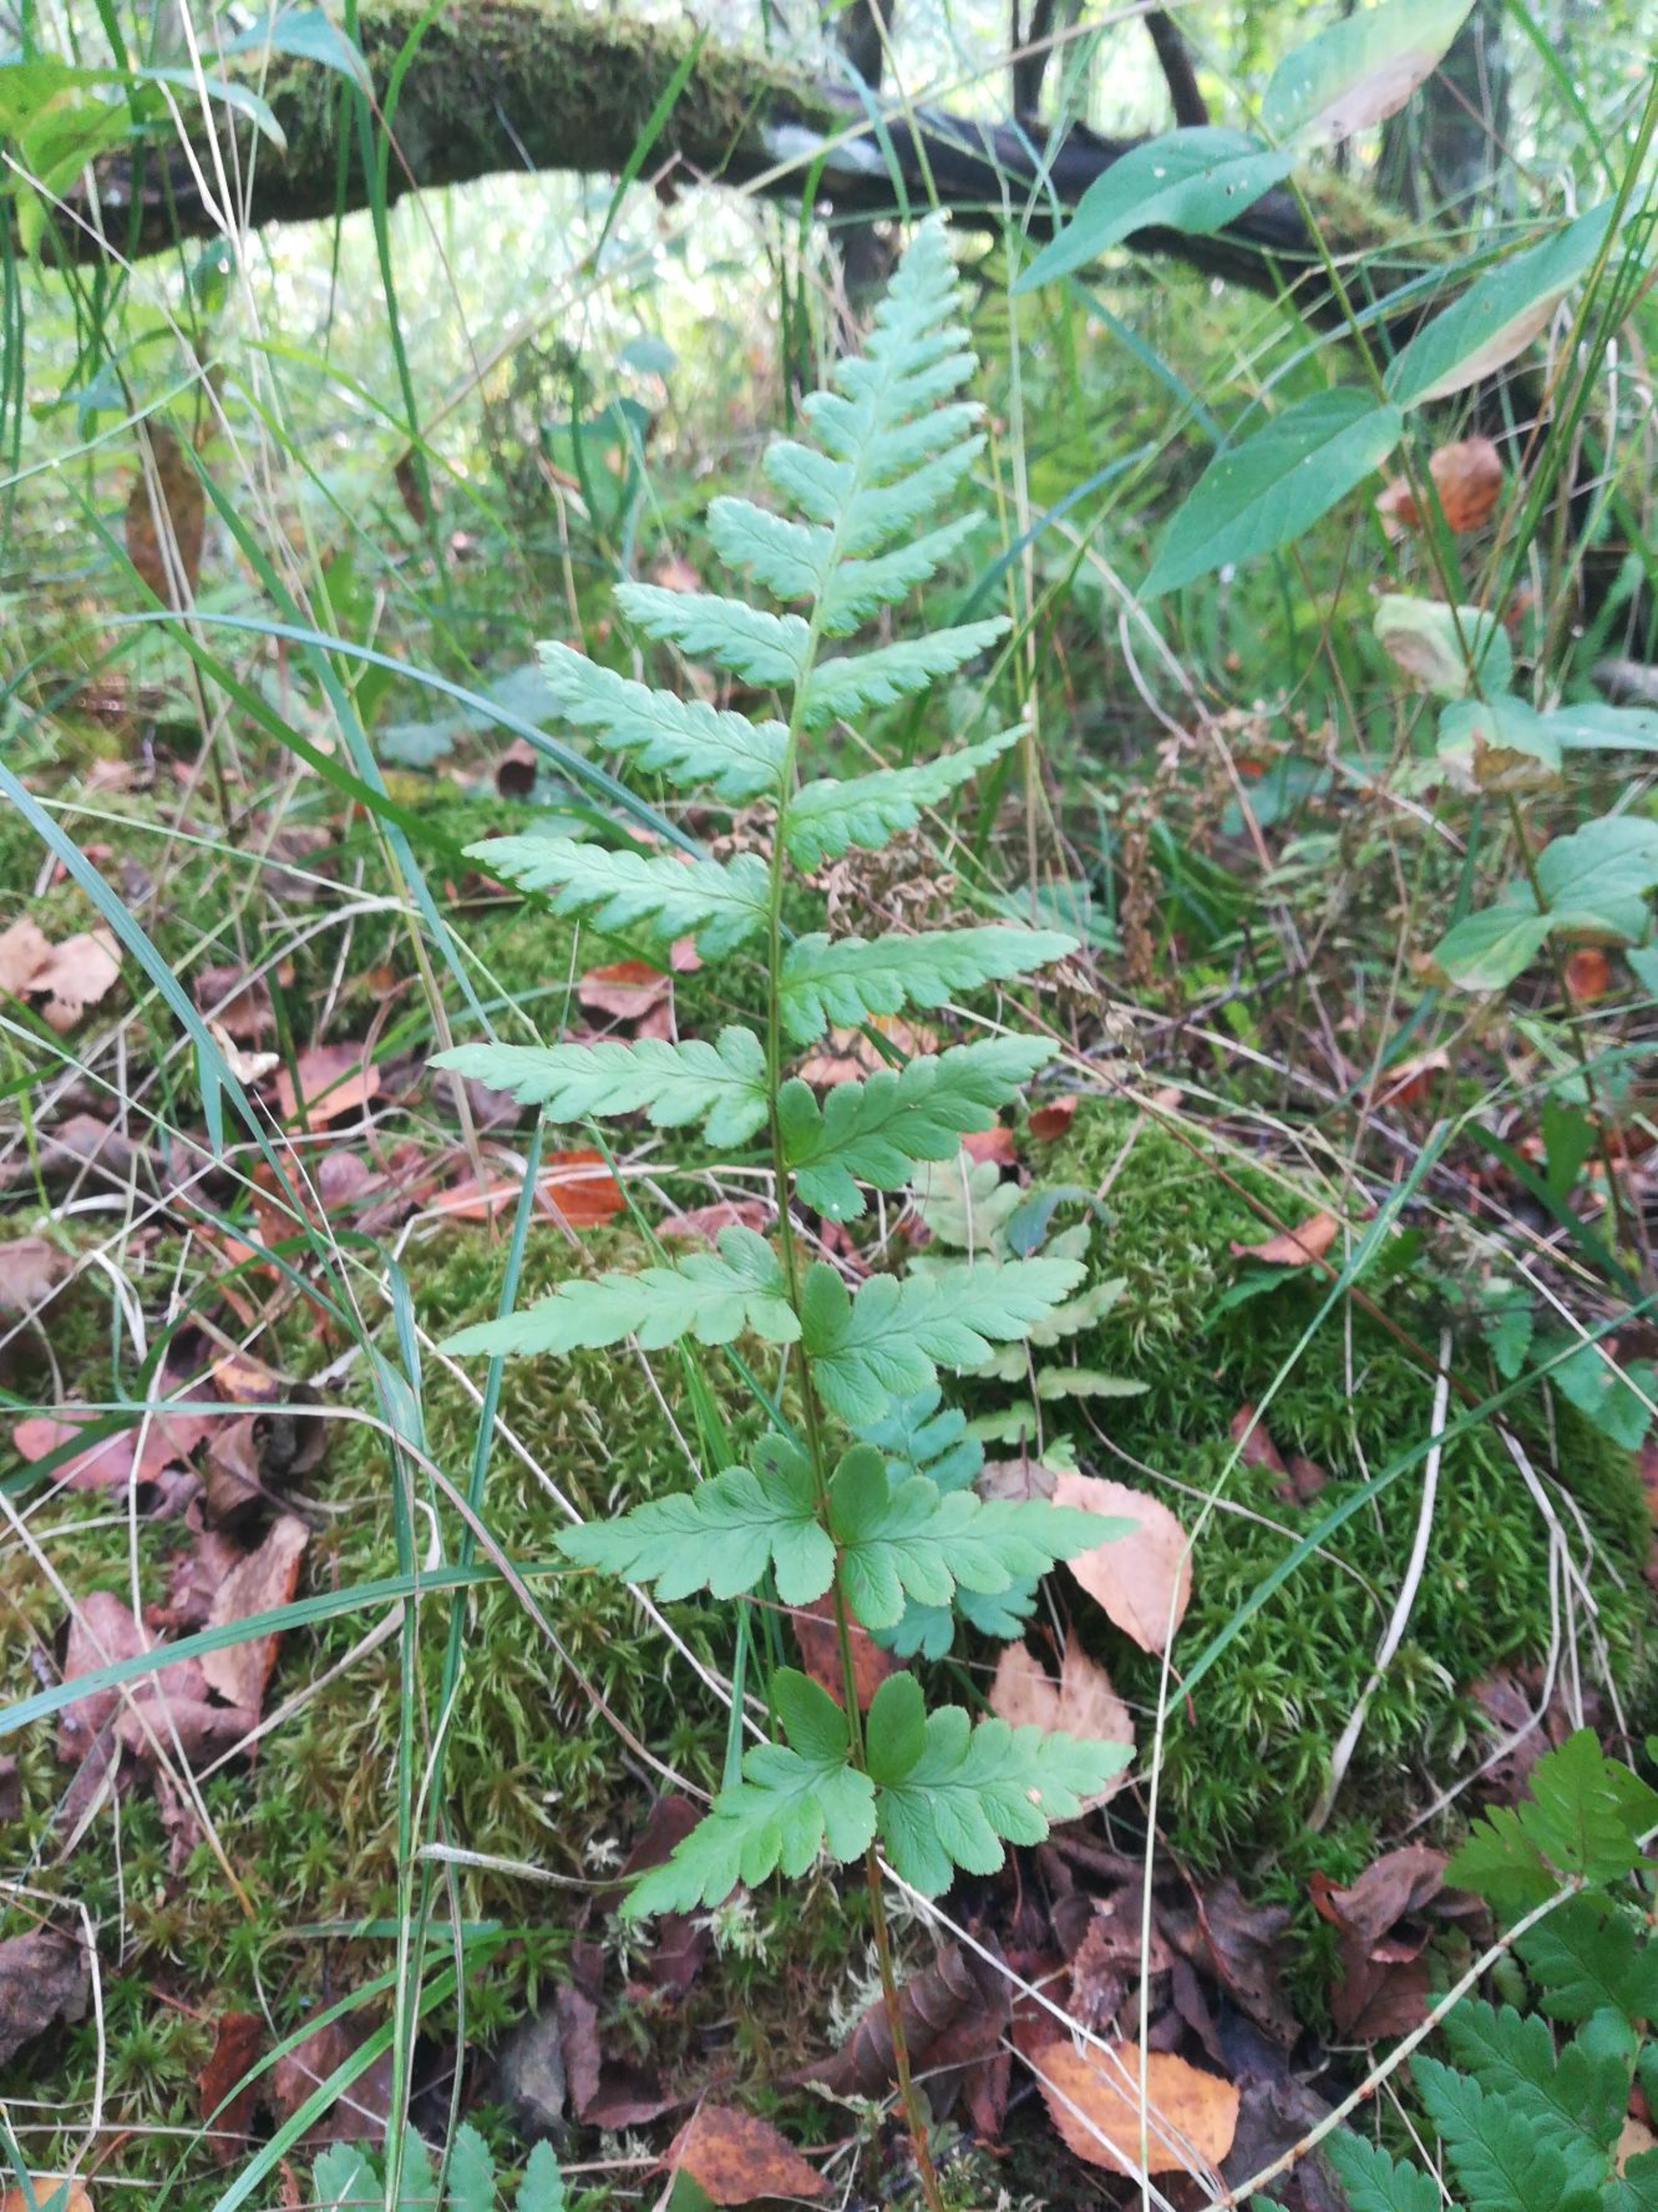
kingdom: Plantae
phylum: Tracheophyta
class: Polypodiopsida
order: Polypodiales
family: Dryopteridaceae
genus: Dryopteris
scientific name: Dryopteris cristata
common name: Butfinnet mangeløv
